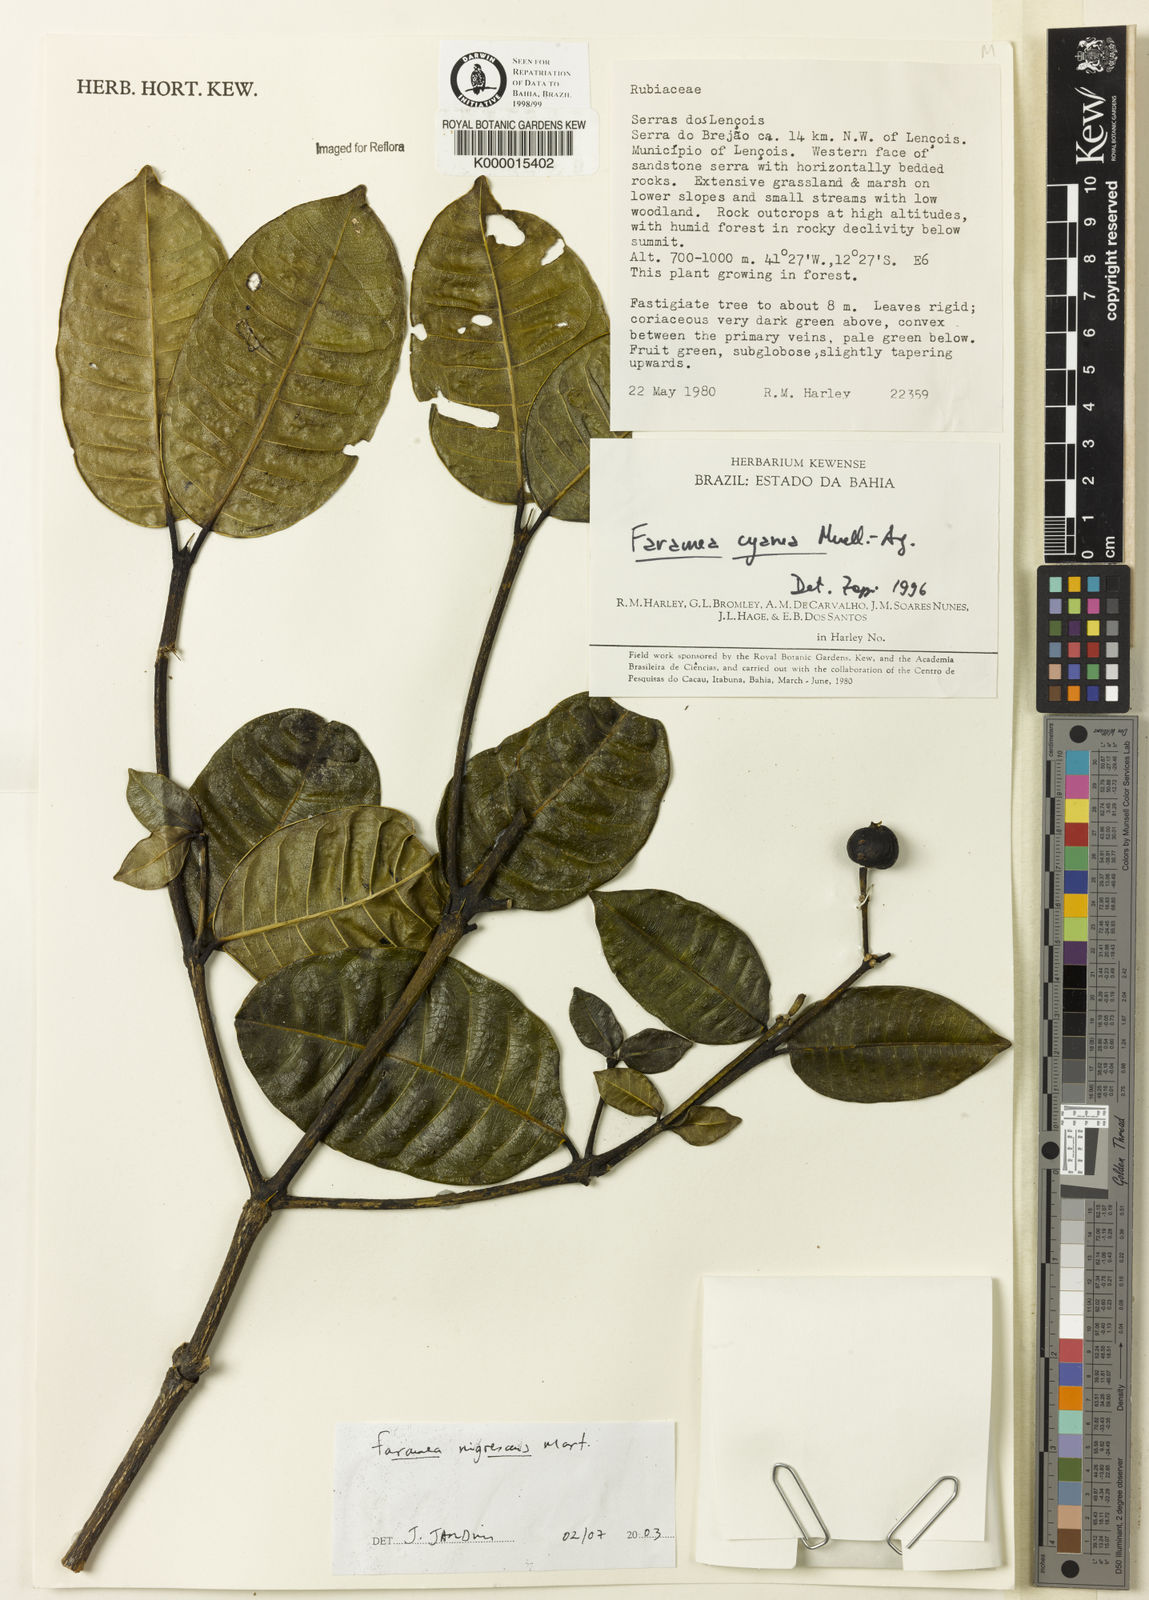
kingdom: Plantae
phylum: Tracheophyta
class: Magnoliopsida
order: Gentianales
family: Rubiaceae
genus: Faramea
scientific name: Faramea nigrescens
